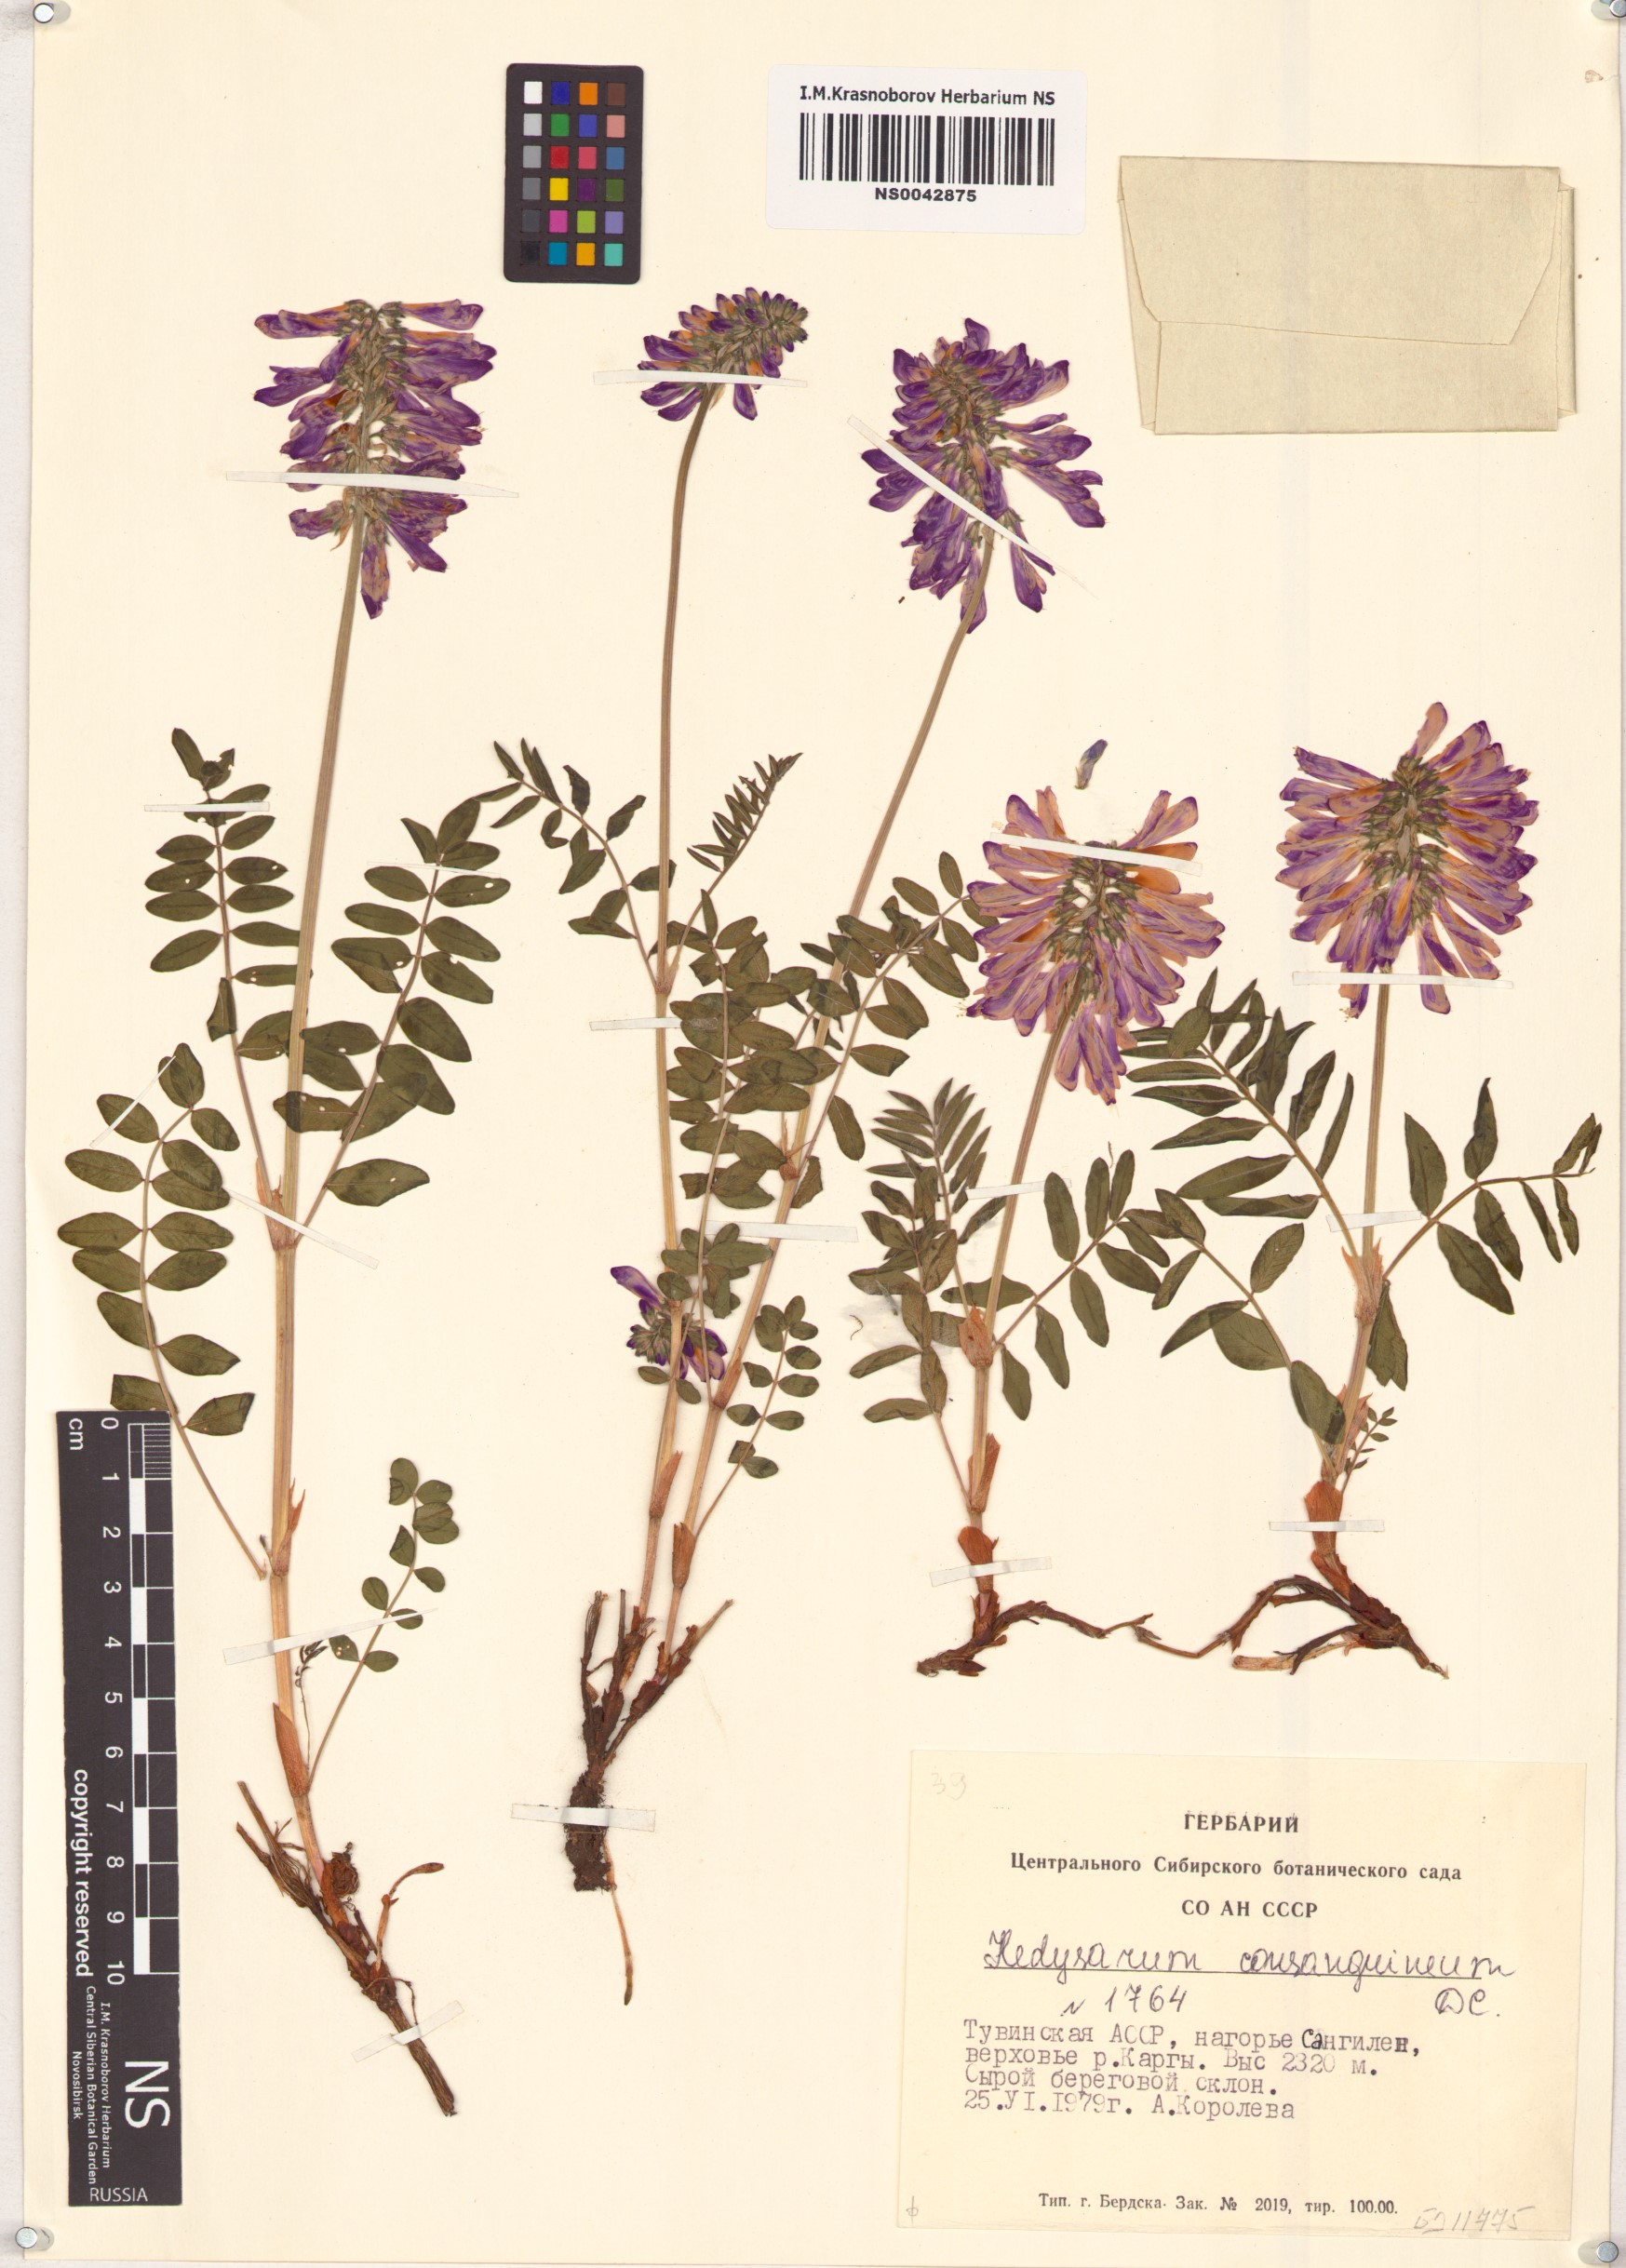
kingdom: Plantae
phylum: Tracheophyta
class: Magnoliopsida
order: Fabales
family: Fabaceae
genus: Hedysarum
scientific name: Hedysarum consanguineum
